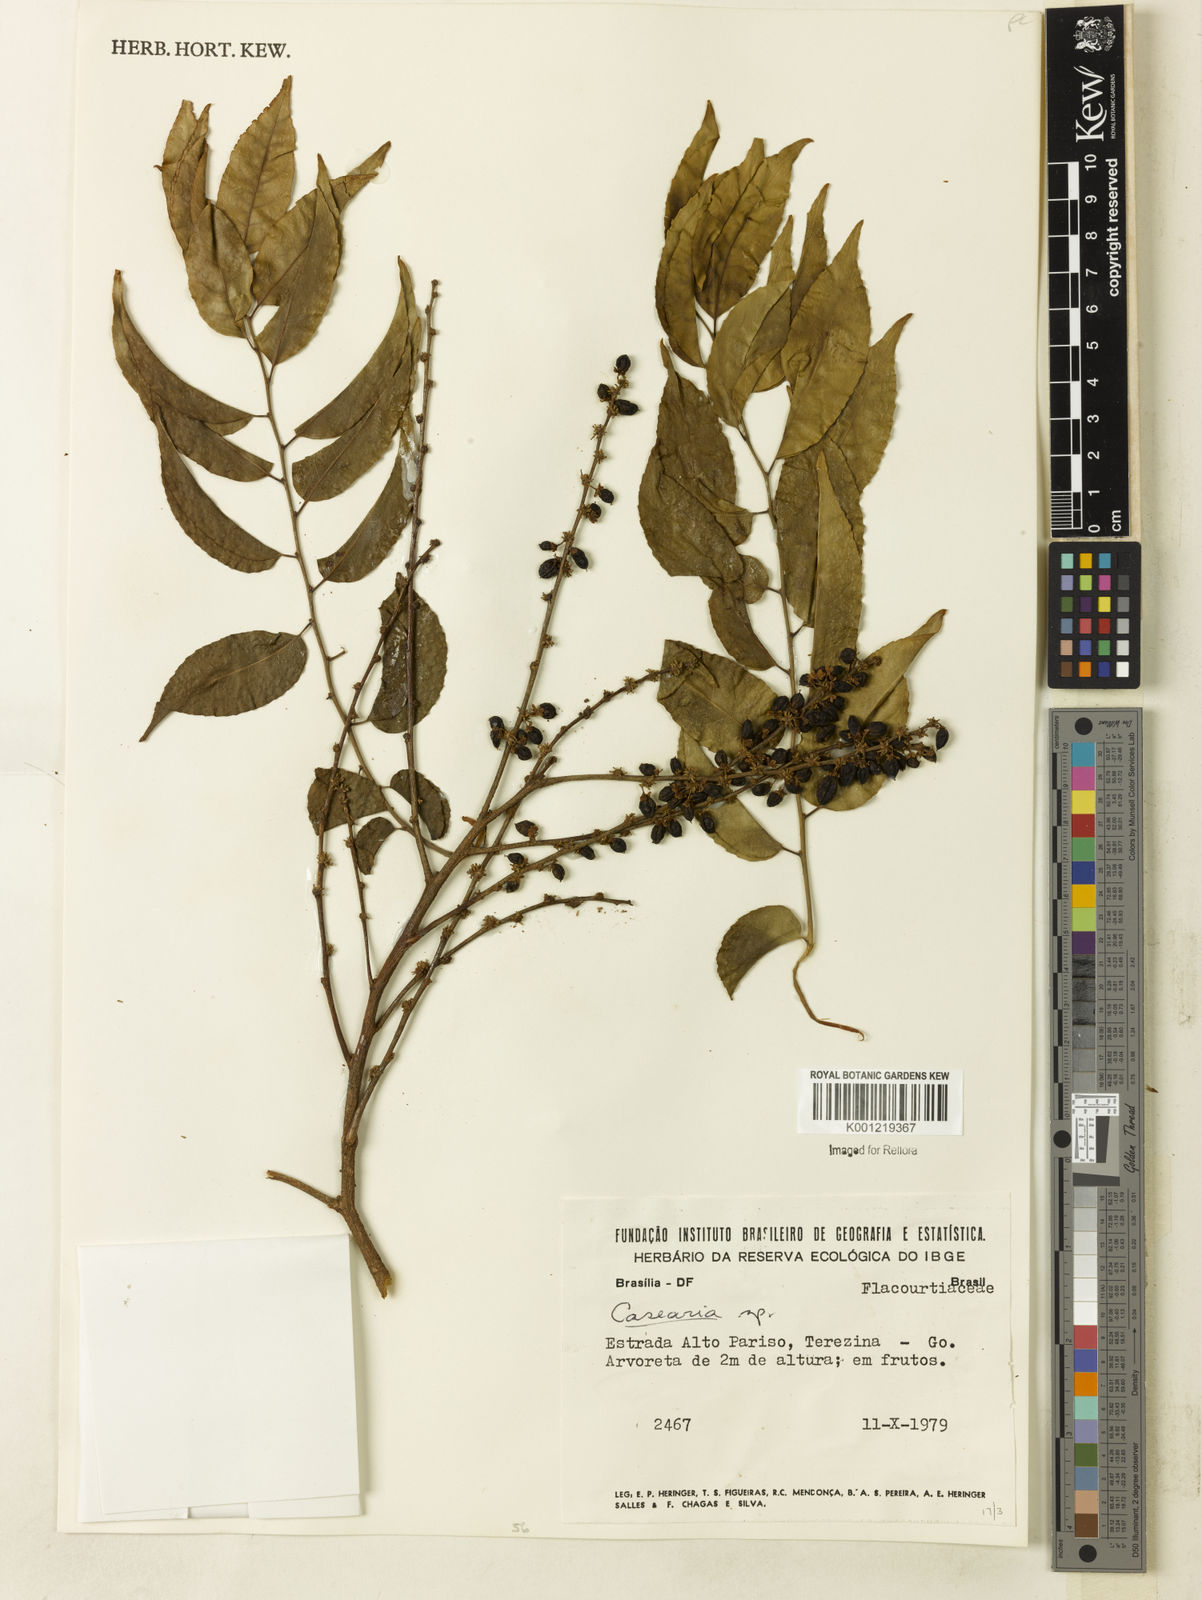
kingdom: Plantae
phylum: Tracheophyta
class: Magnoliopsida
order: Malpighiales
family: Salicaceae
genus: Casearia
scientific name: Casearia
